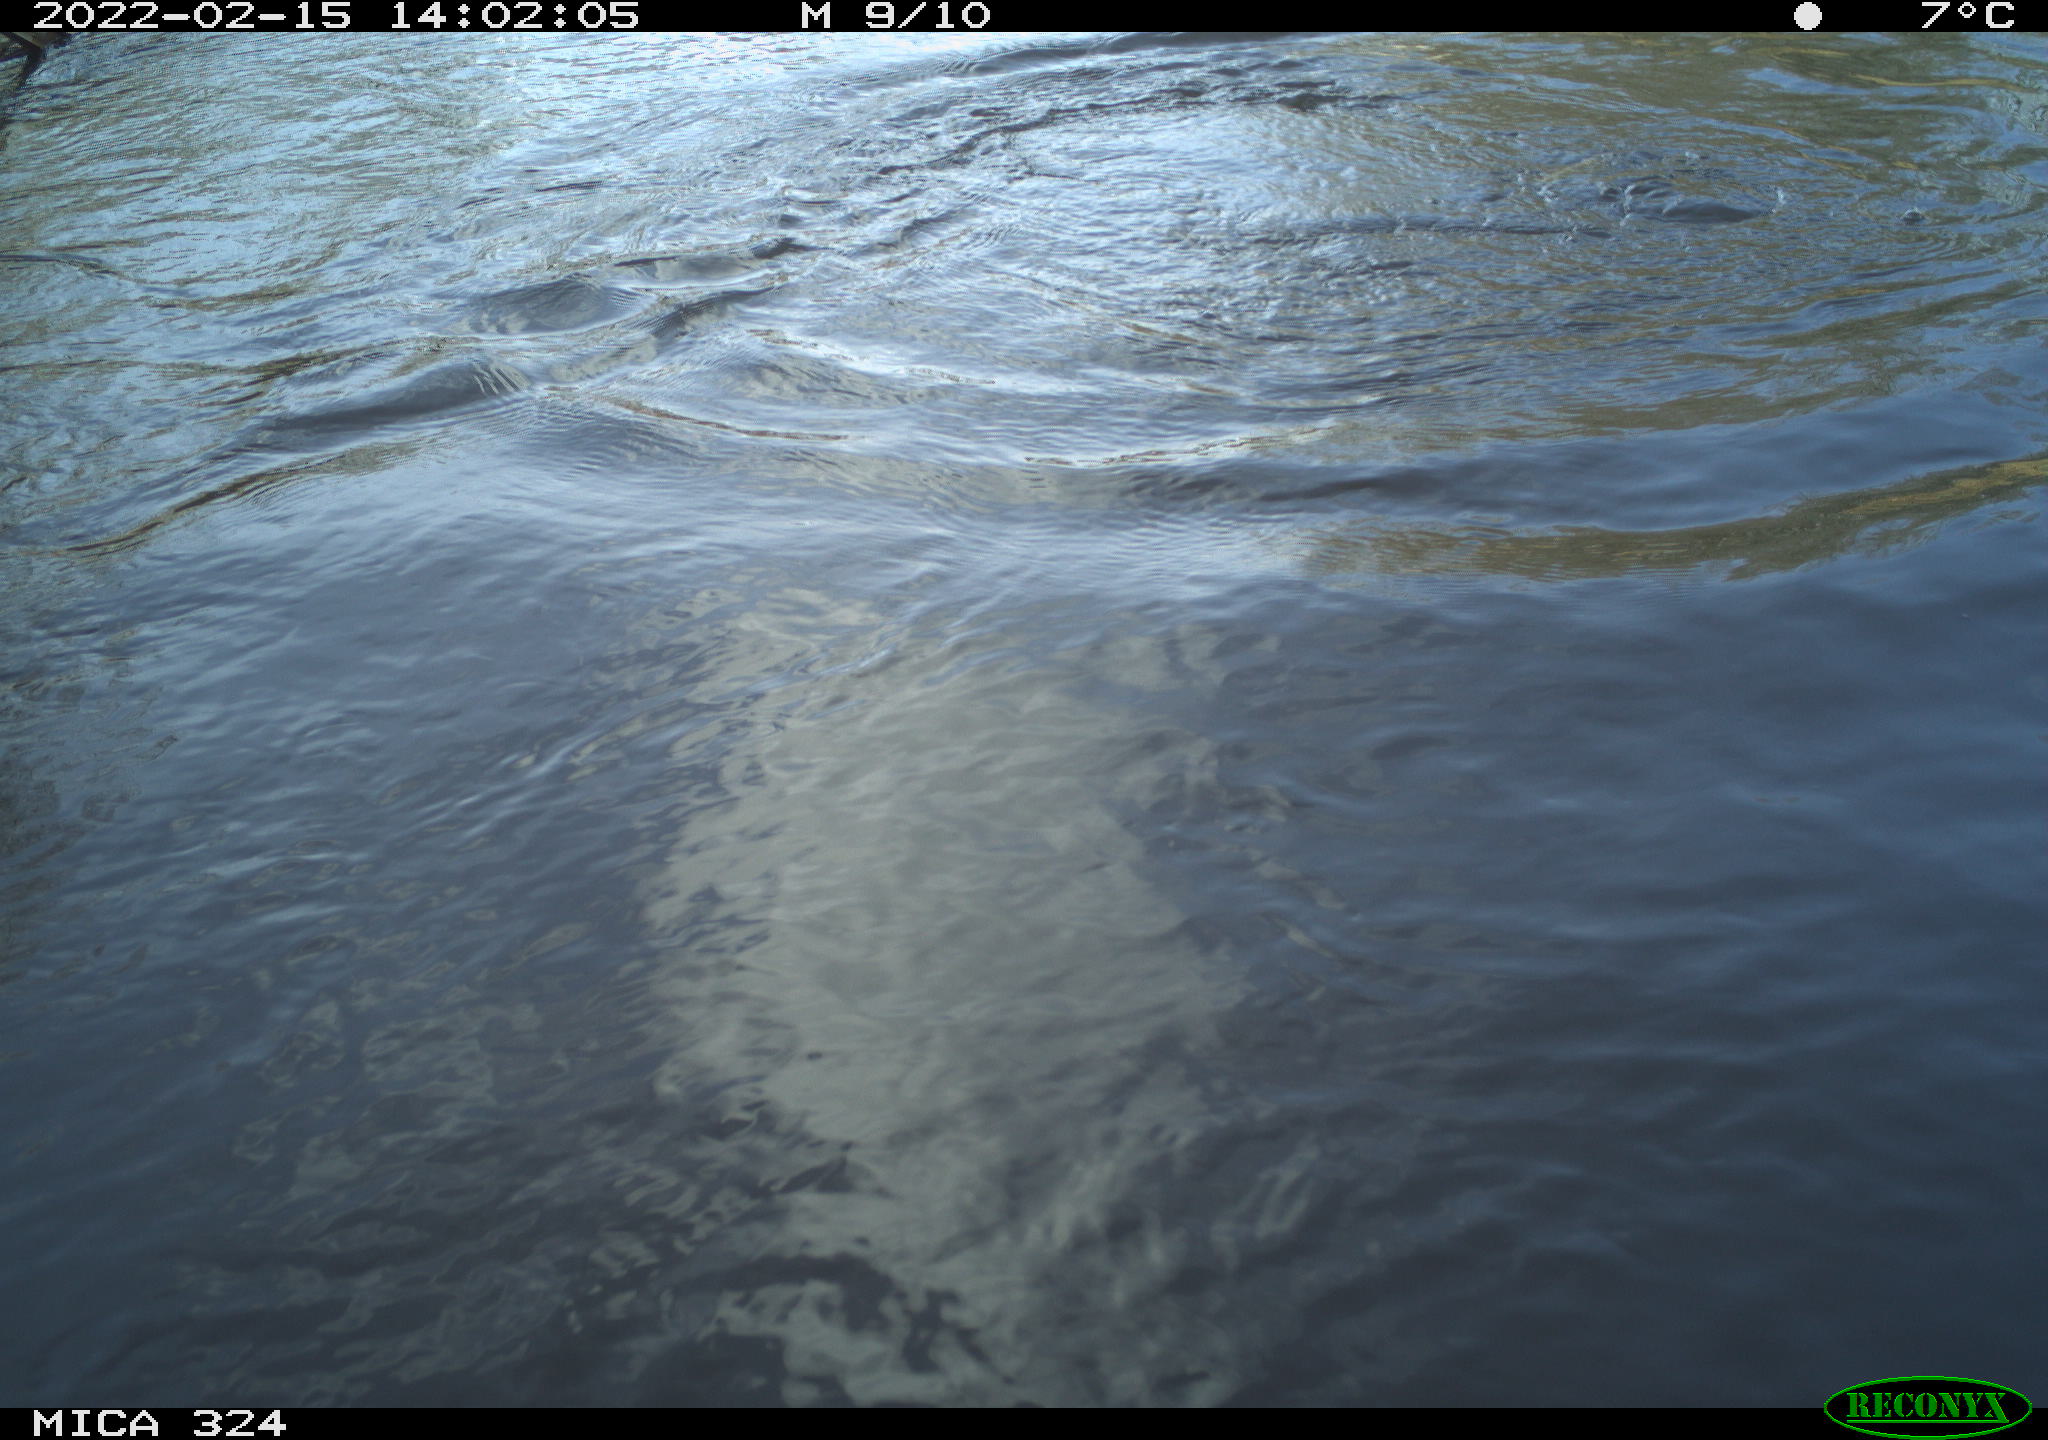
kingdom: Animalia
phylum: Chordata
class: Aves
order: Suliformes
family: Phalacrocoracidae
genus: Phalacrocorax
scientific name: Phalacrocorax carbo
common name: Great cormorant
